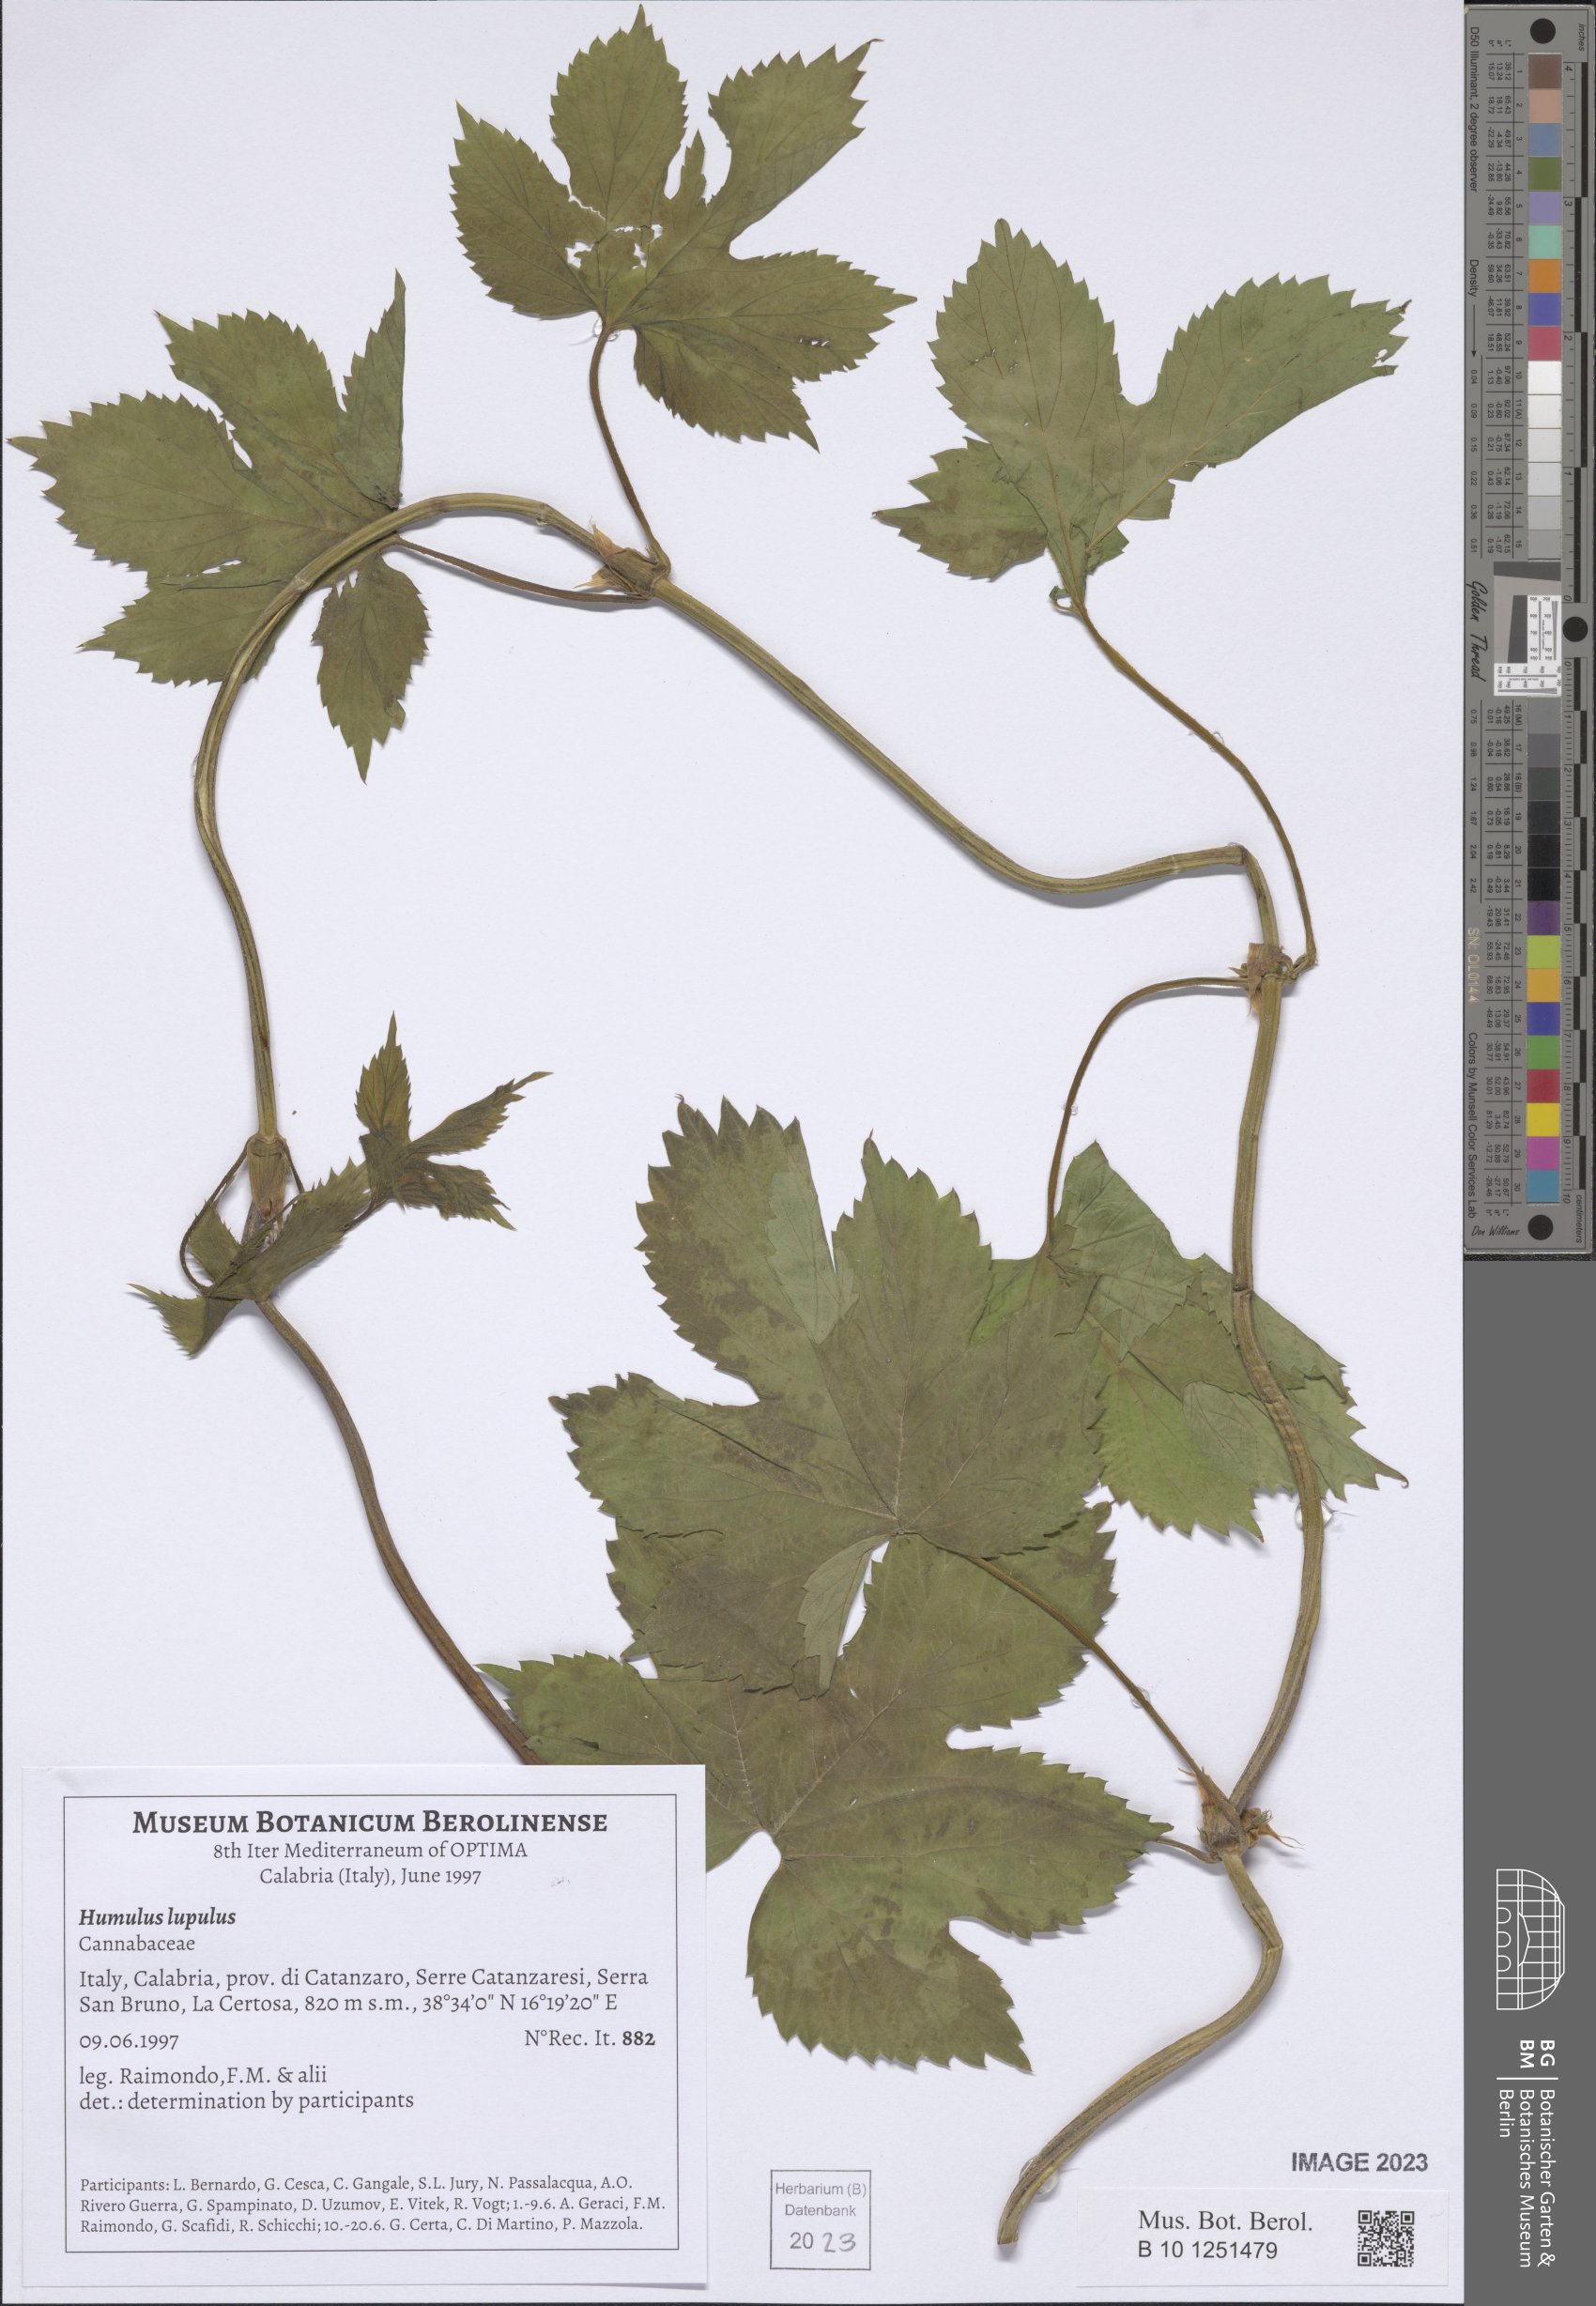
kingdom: Plantae
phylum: Tracheophyta
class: Magnoliopsida
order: Rosales
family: Cannabaceae
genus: Humulus
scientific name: Humulus lupulus
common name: Hop
